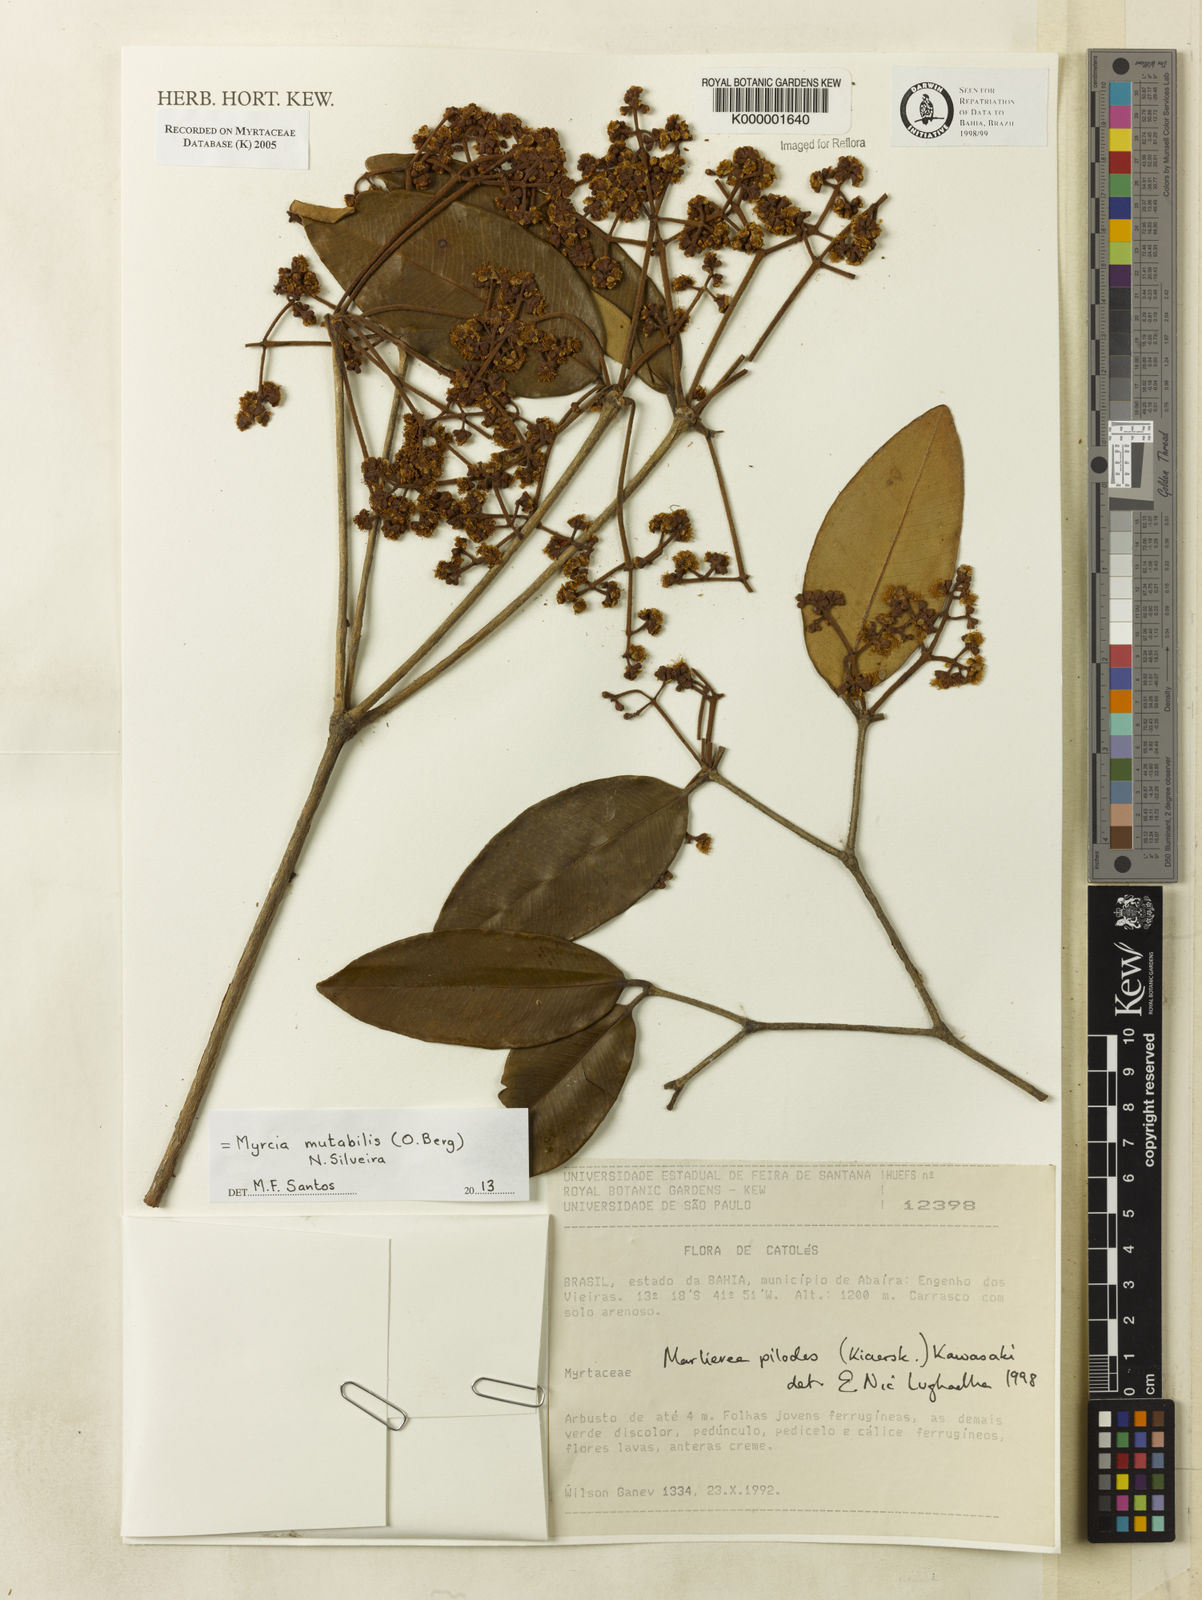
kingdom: Plantae
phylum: Tracheophyta
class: Magnoliopsida
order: Myrtales
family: Myrtaceae
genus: Myrcia
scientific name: Myrcia mutabilis
